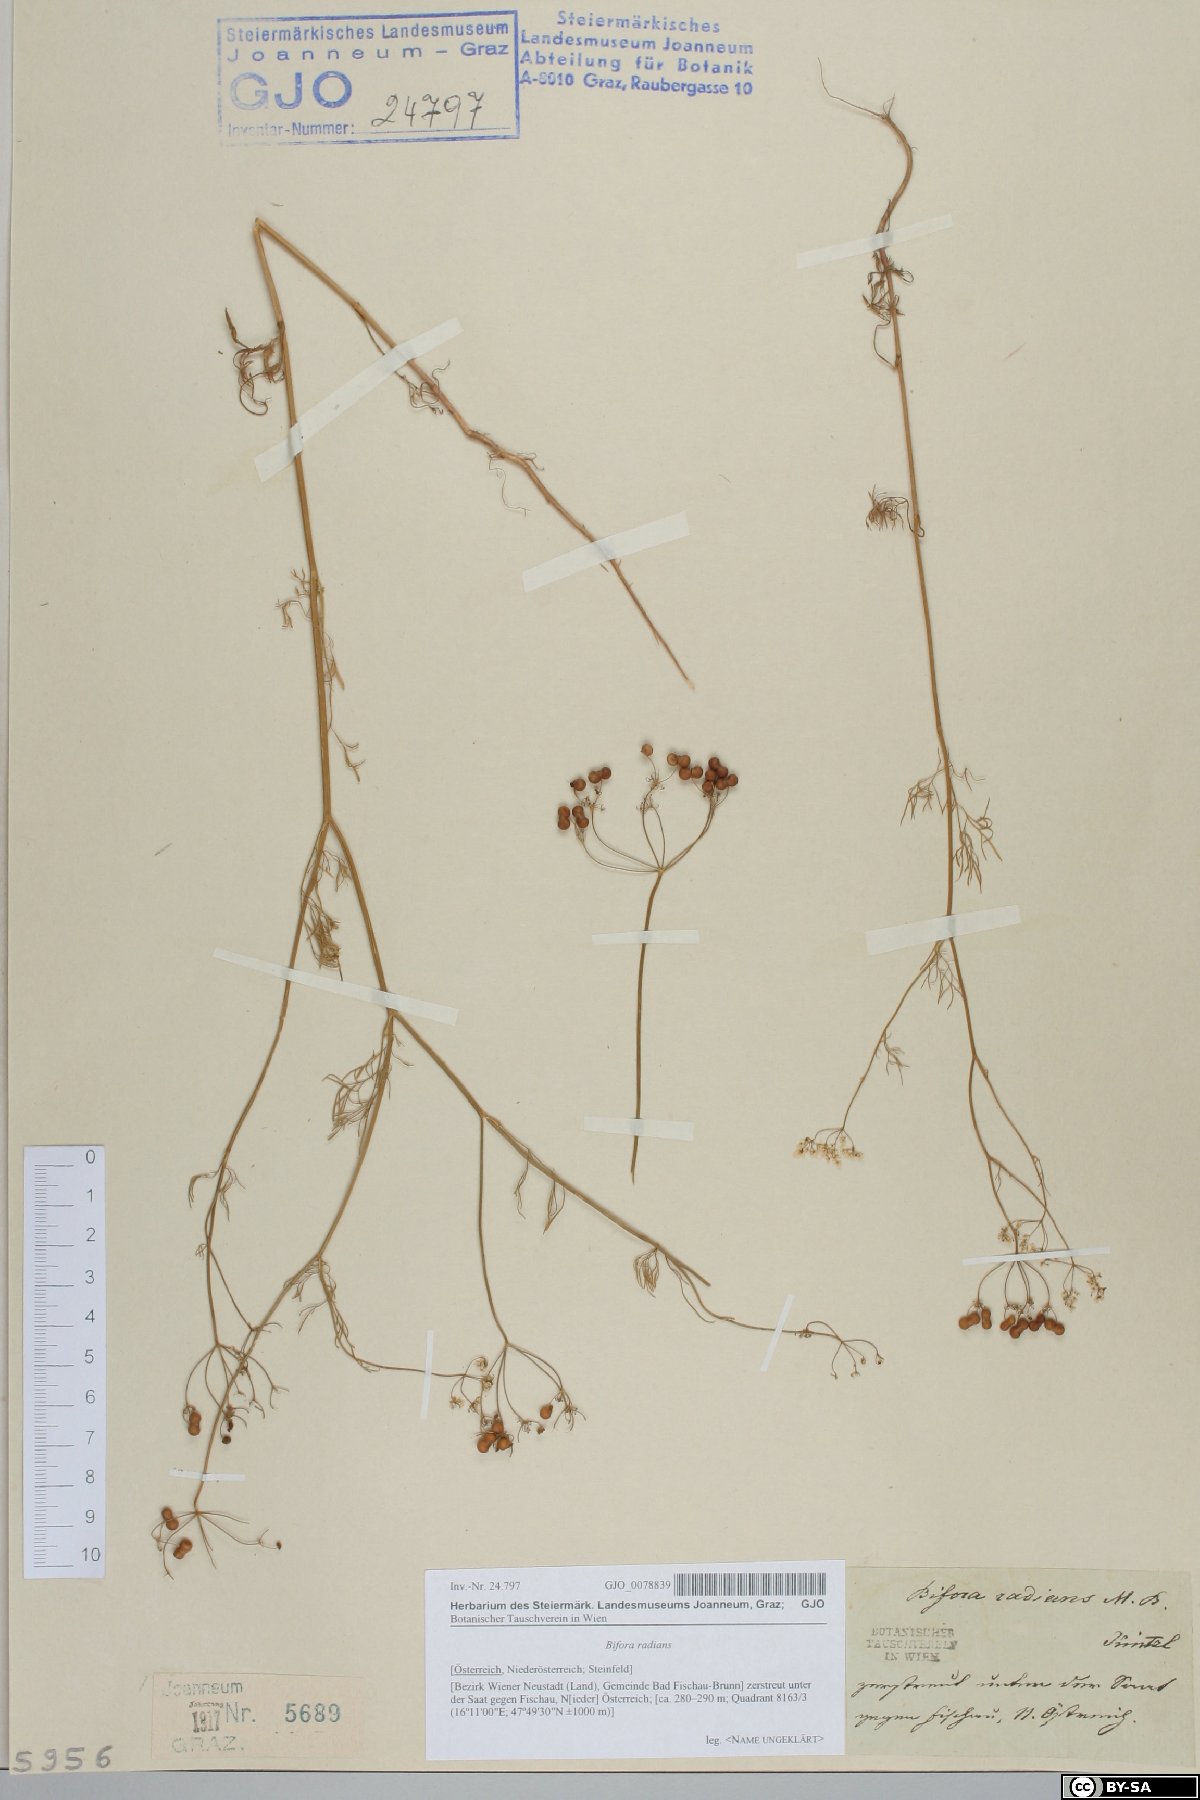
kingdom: Plantae
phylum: Tracheophyta
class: Magnoliopsida
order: Apiales
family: Apiaceae
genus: Bifora
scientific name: Bifora radians
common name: Wild bishop
